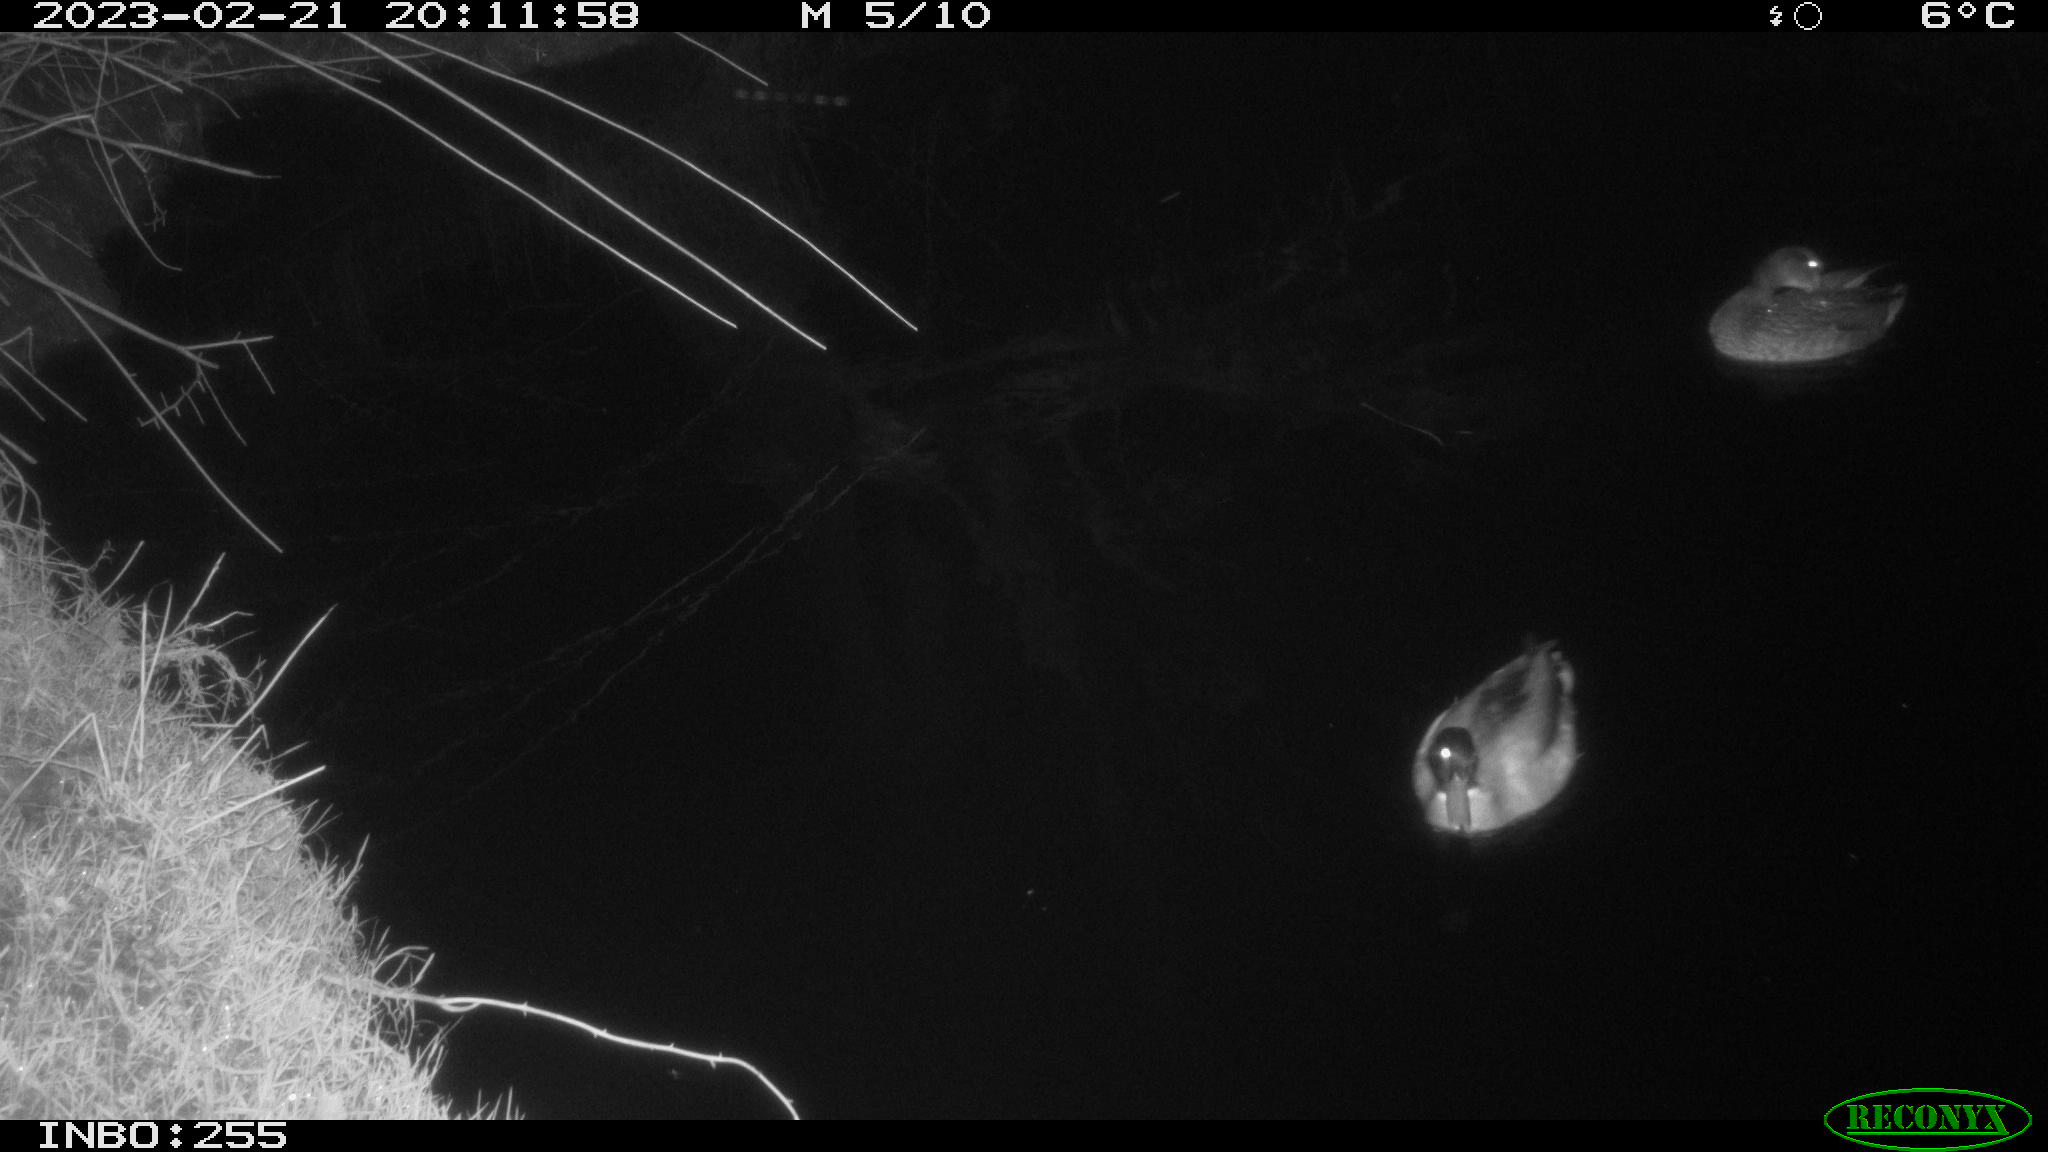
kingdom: Animalia
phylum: Chordata
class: Aves
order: Anseriformes
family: Anatidae
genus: Anas
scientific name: Anas
